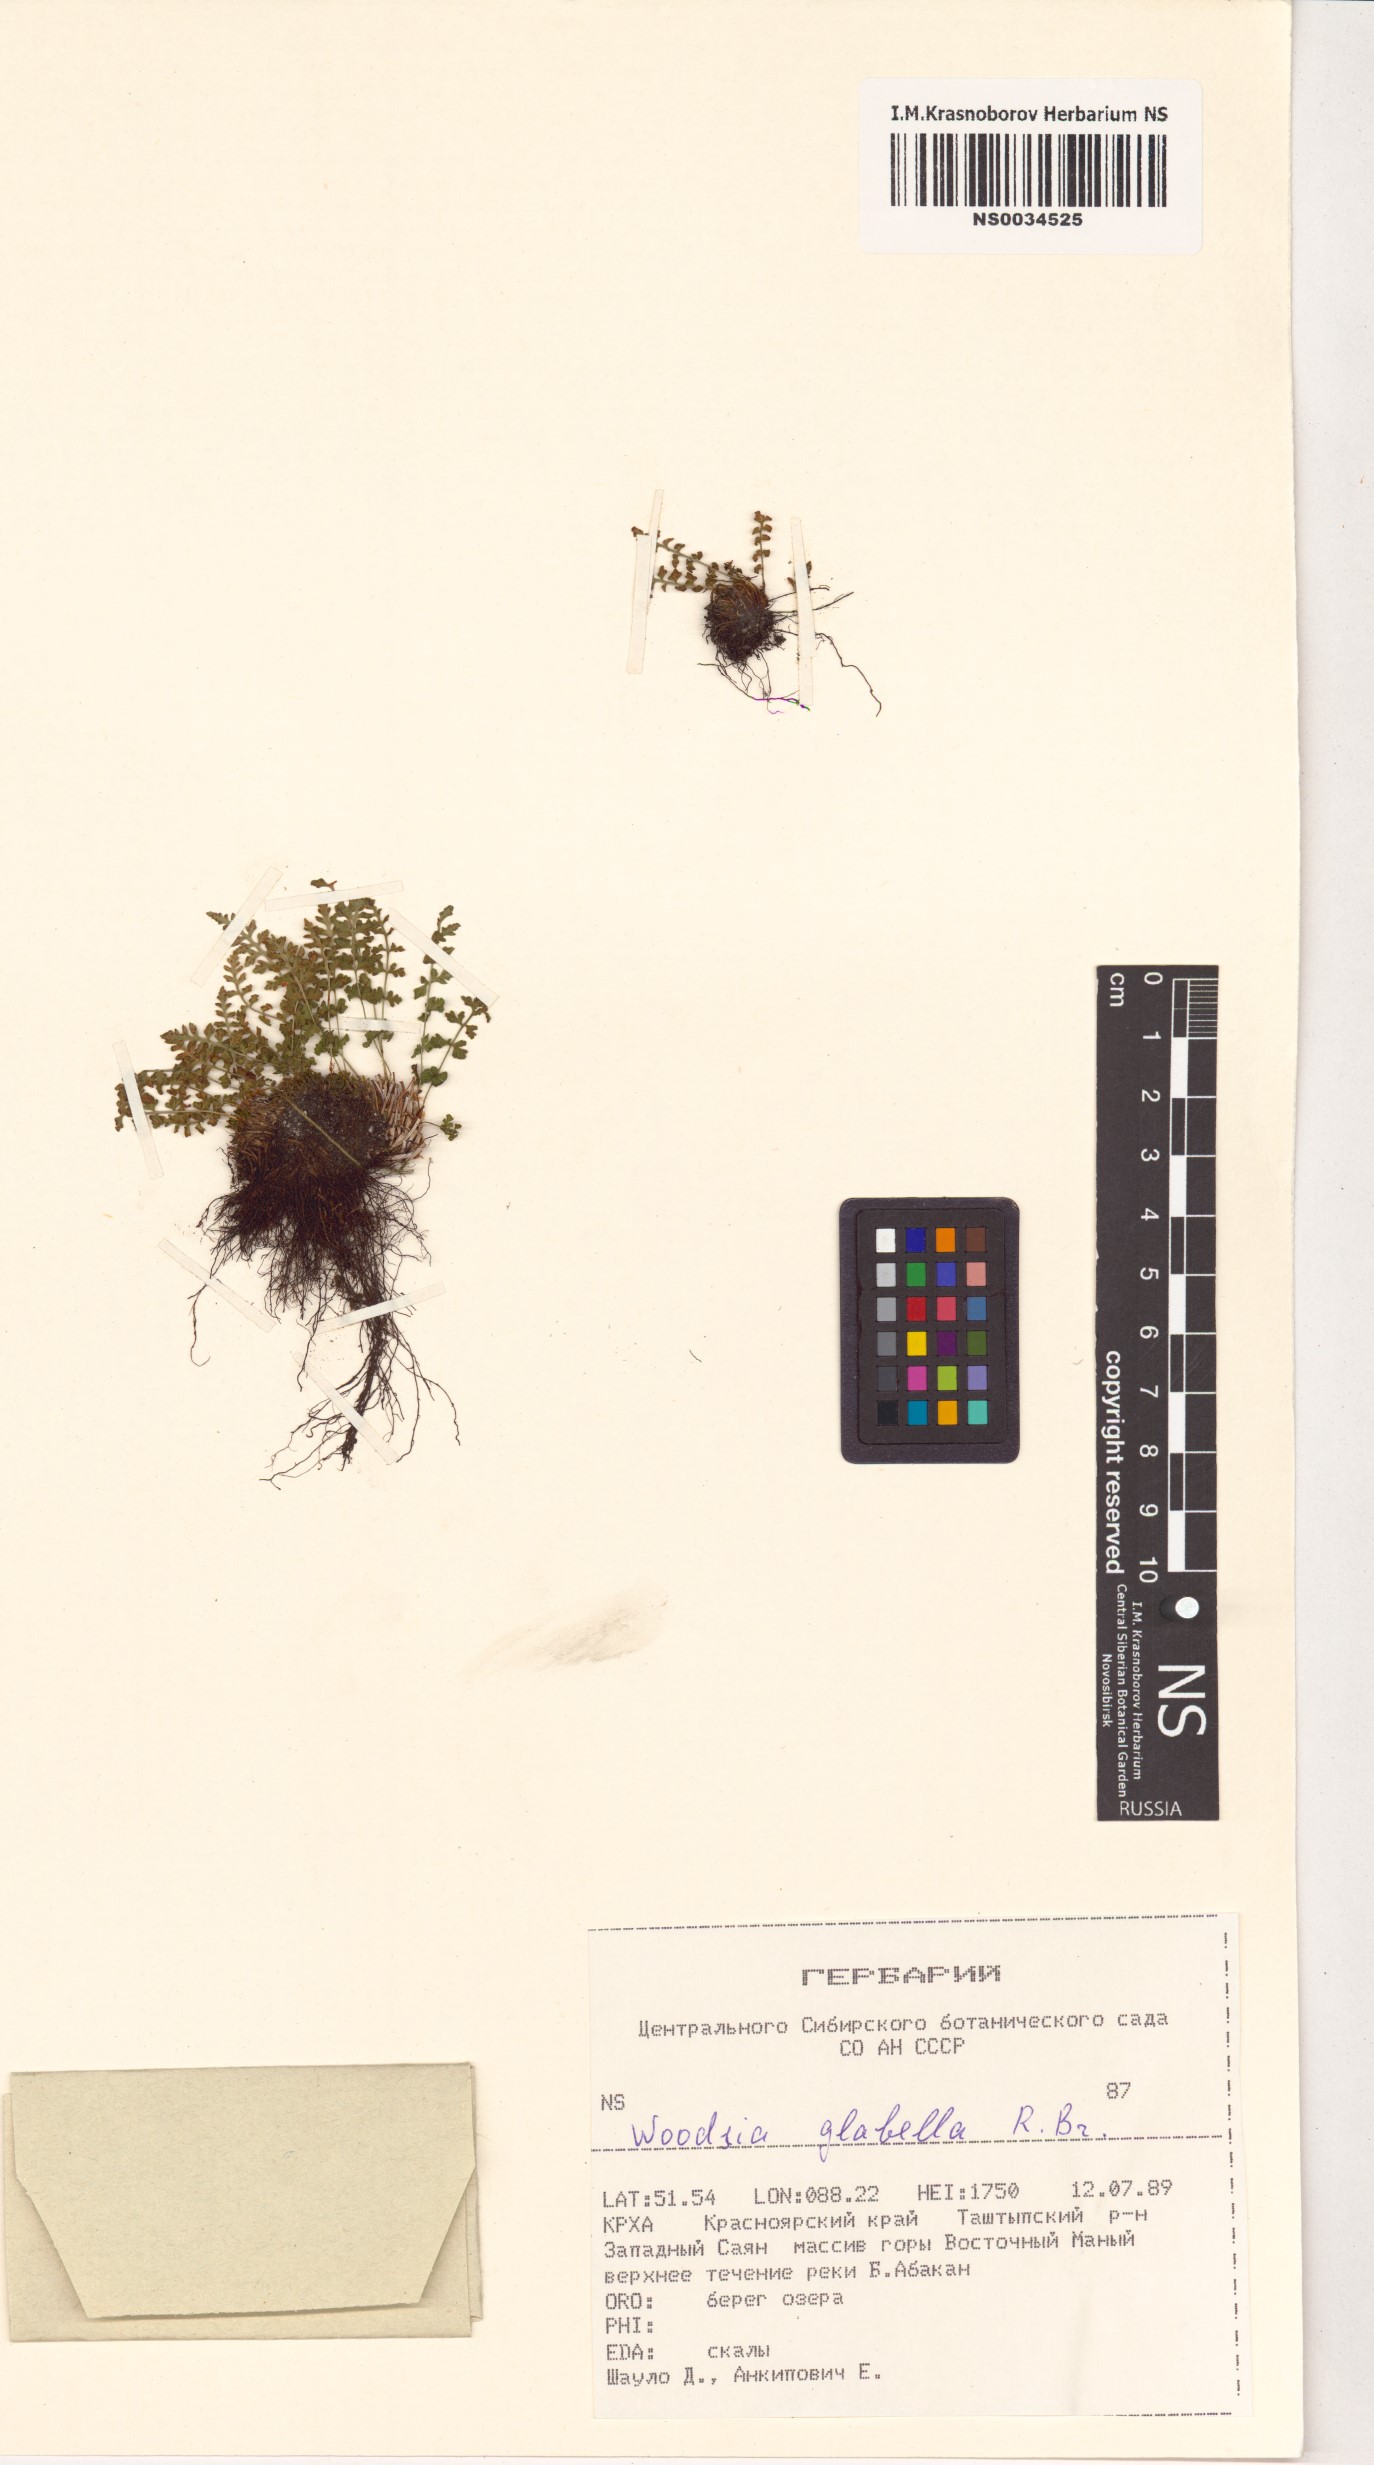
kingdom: Plantae
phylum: Tracheophyta
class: Polypodiopsida
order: Polypodiales
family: Woodsiaceae
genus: Woodsia
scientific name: Woodsia glabella
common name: Smooth woodsia
